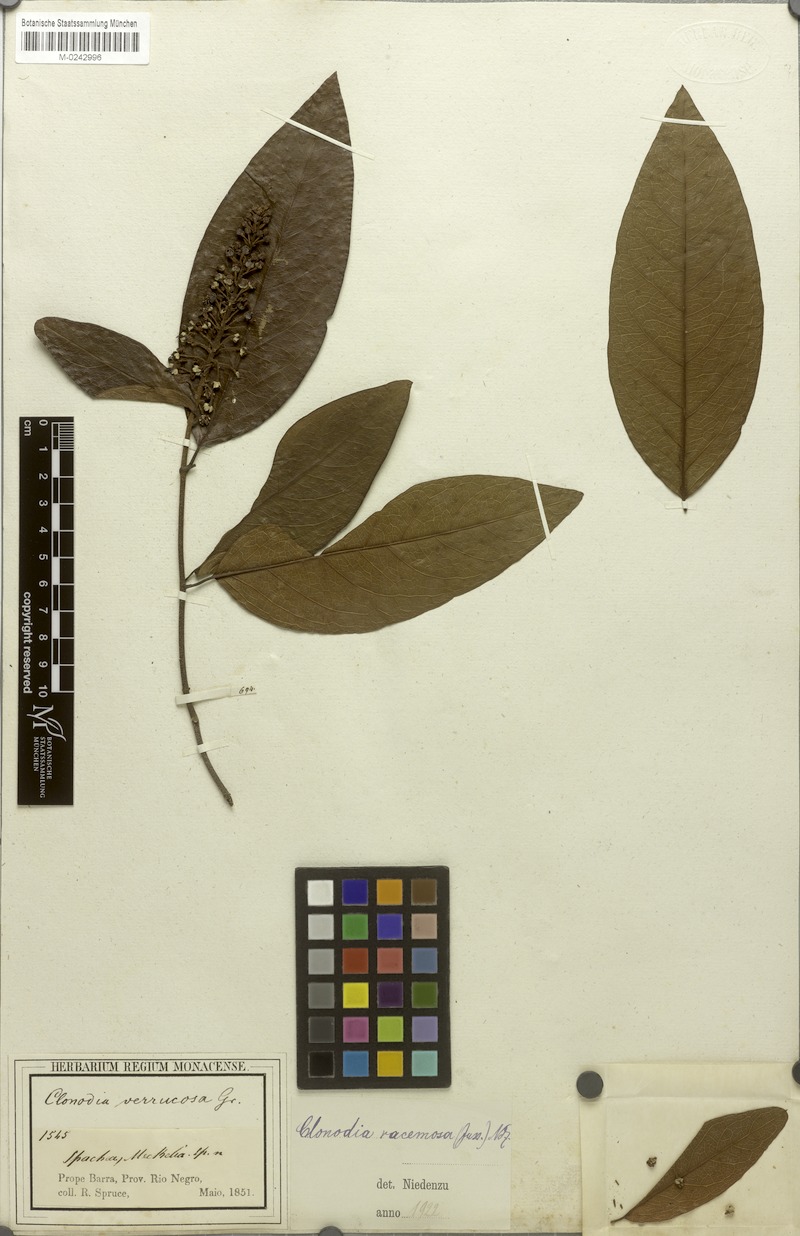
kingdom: Plantae
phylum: Tracheophyta
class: Magnoliopsida
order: Malpighiales
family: Malpighiaceae
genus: Heteropterys
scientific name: Heteropterys racemosa
